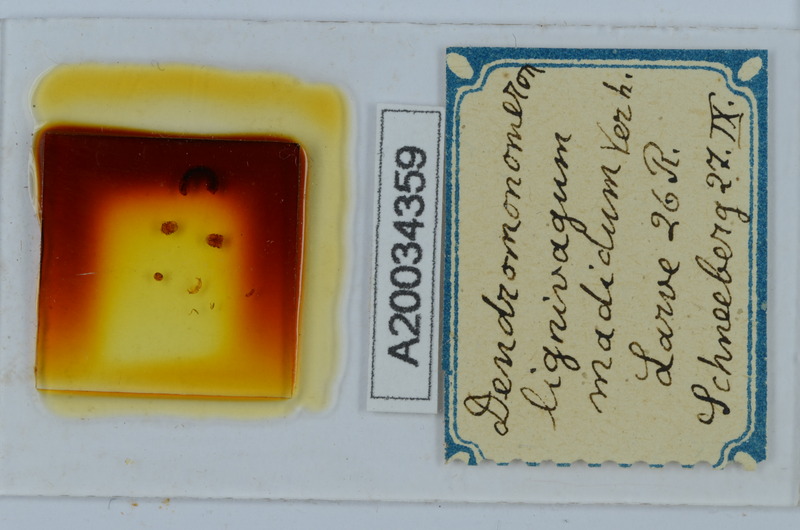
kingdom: Animalia
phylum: Arthropoda
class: Diplopoda
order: Chordeumatida
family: Attemsiidae
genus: Dendromonomeron
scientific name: Dendromonomeron lignivagum
